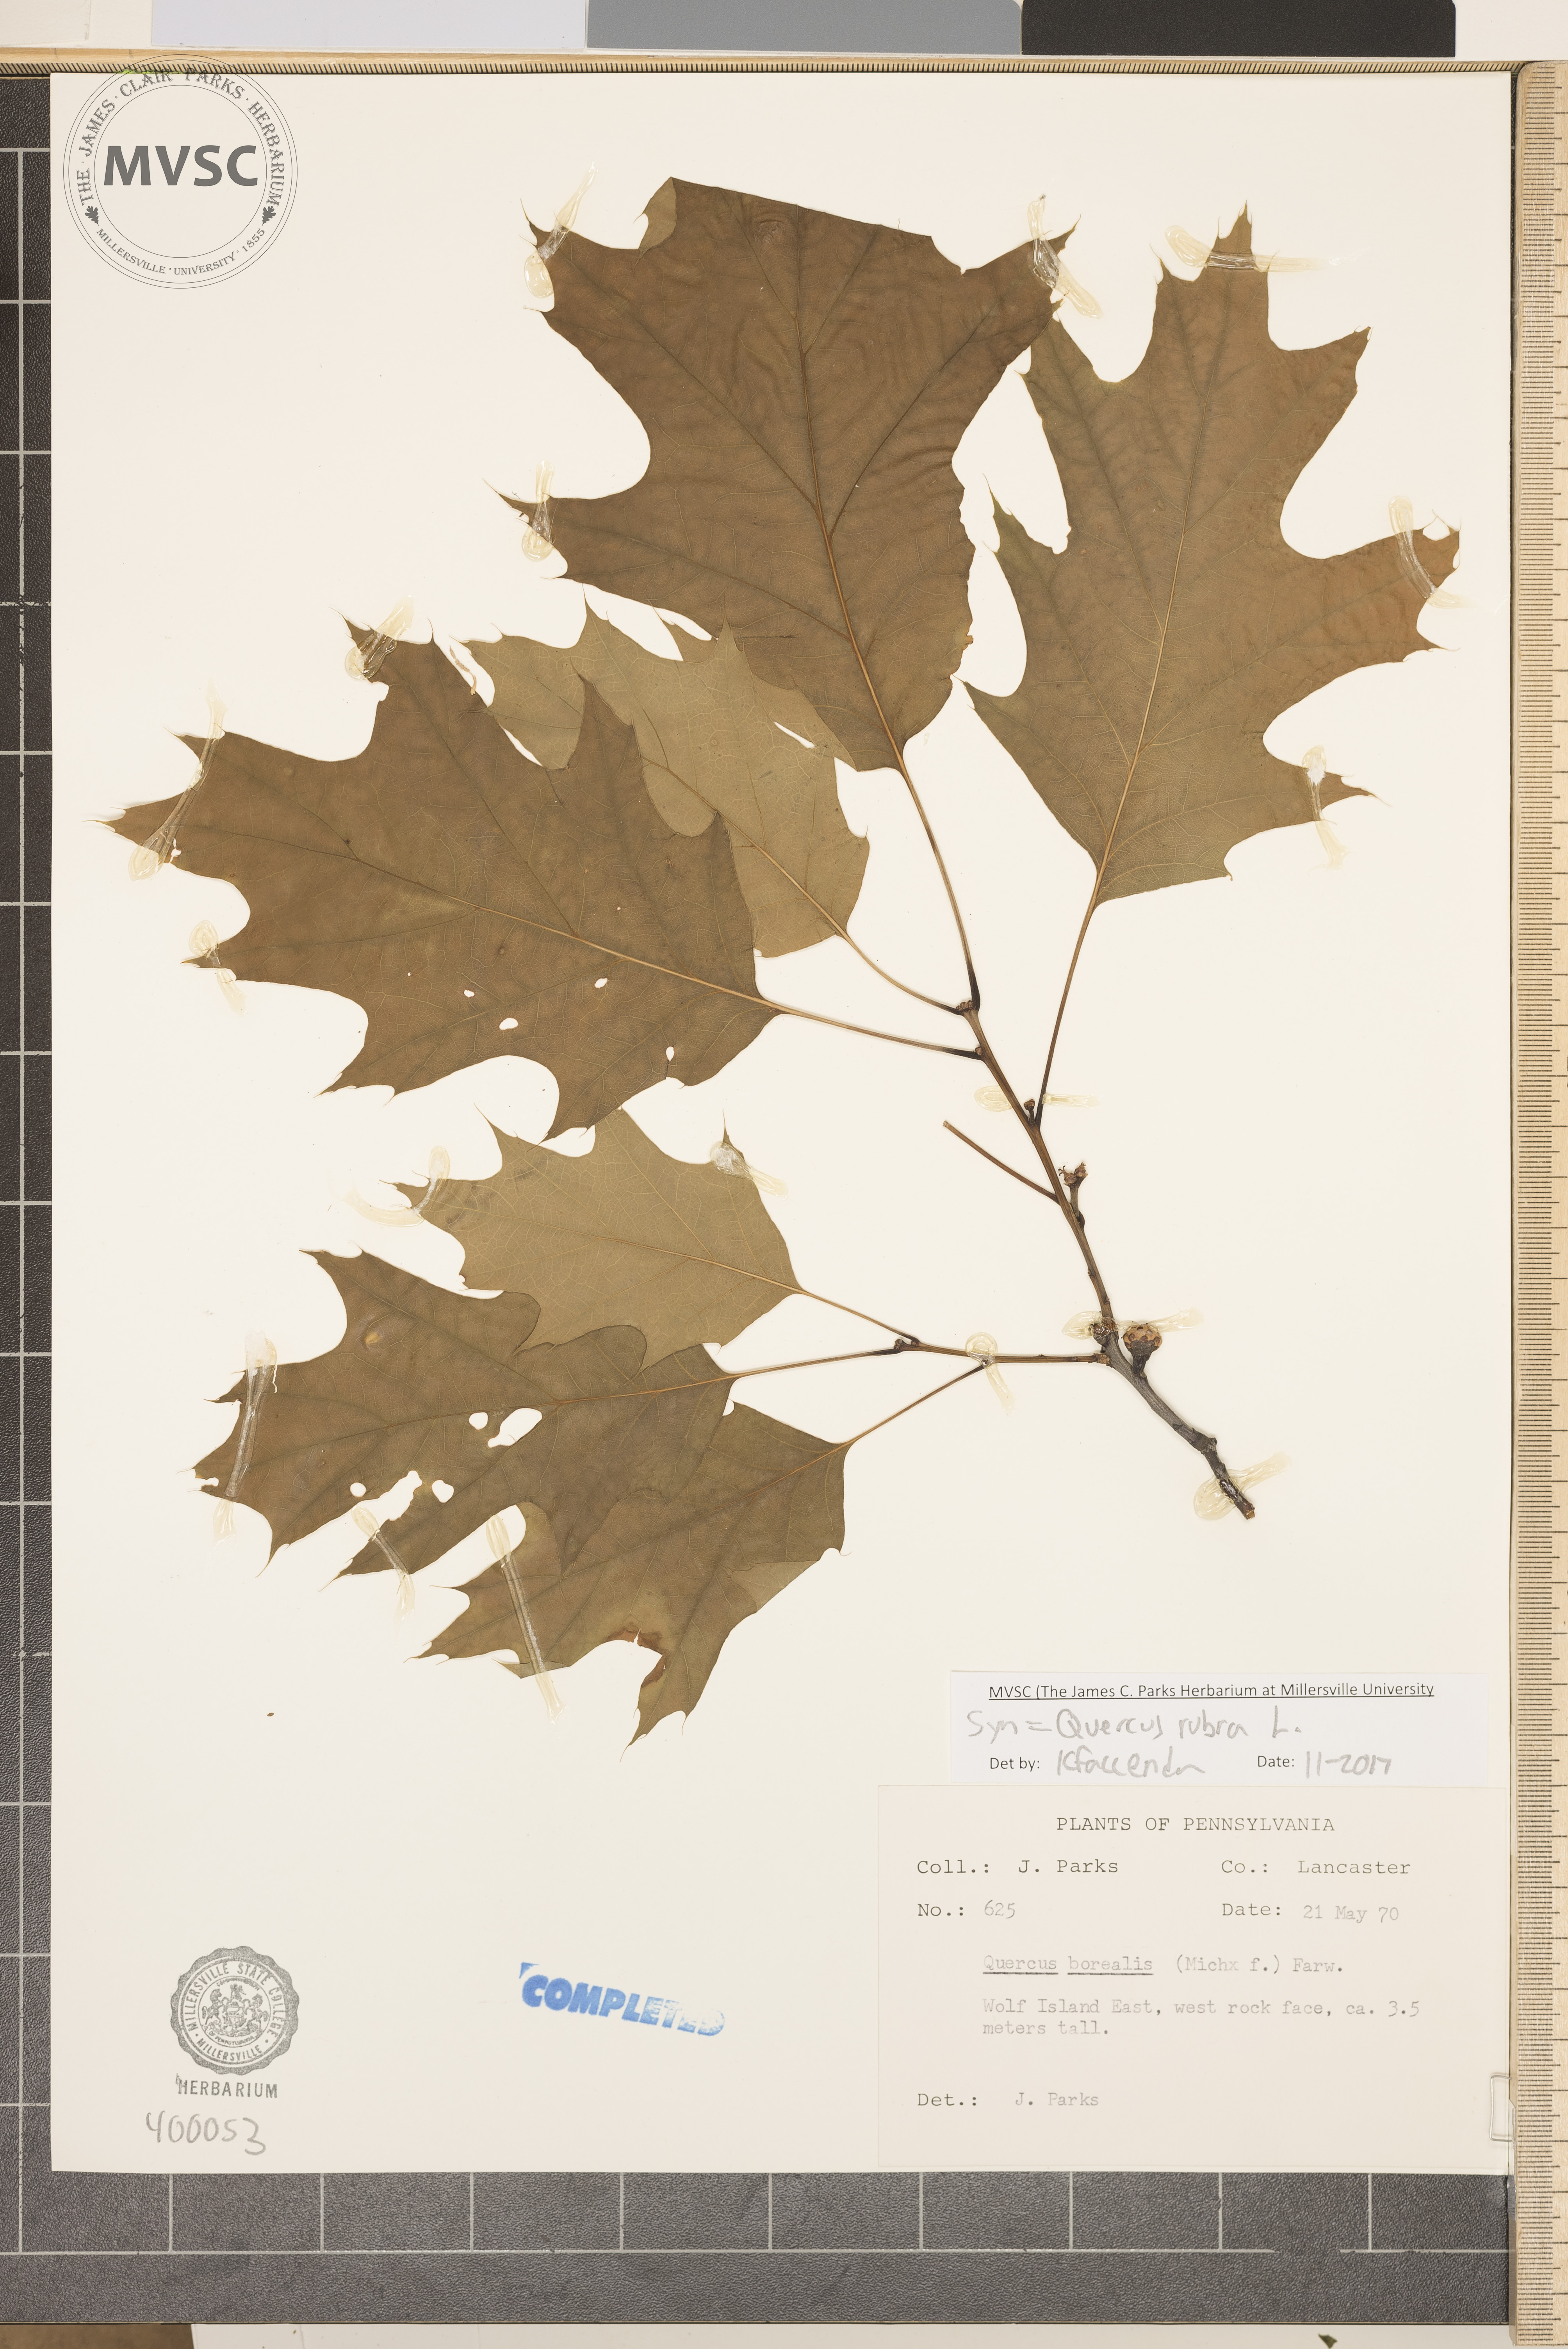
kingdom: Plantae
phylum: Tracheophyta
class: Magnoliopsida
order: Fagales
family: Fagaceae
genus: Quercus
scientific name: Quercus rubra
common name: red oak
